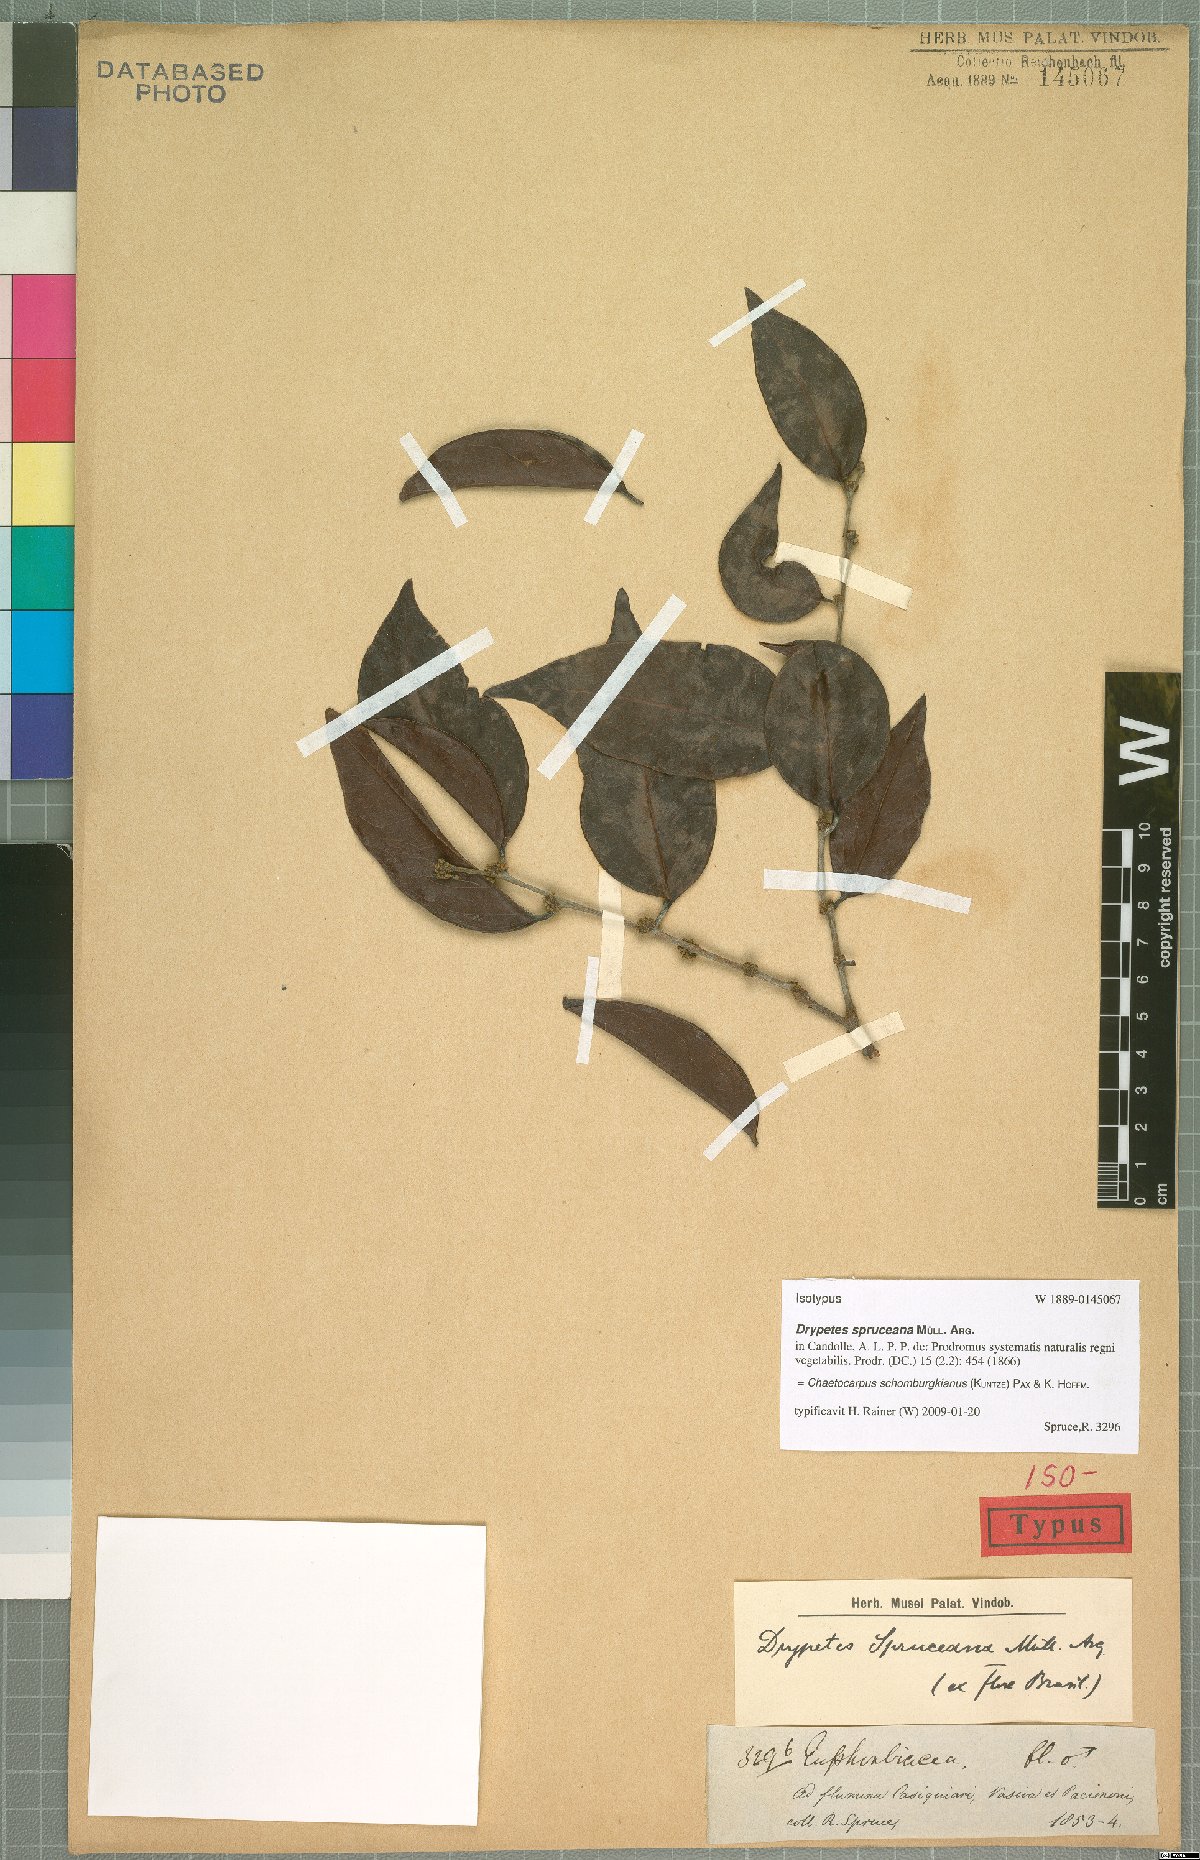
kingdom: Plantae
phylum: Tracheophyta
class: Magnoliopsida
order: Malpighiales
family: Peraceae
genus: Chaetocarpus
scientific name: Chaetocarpus schomburgkianus
